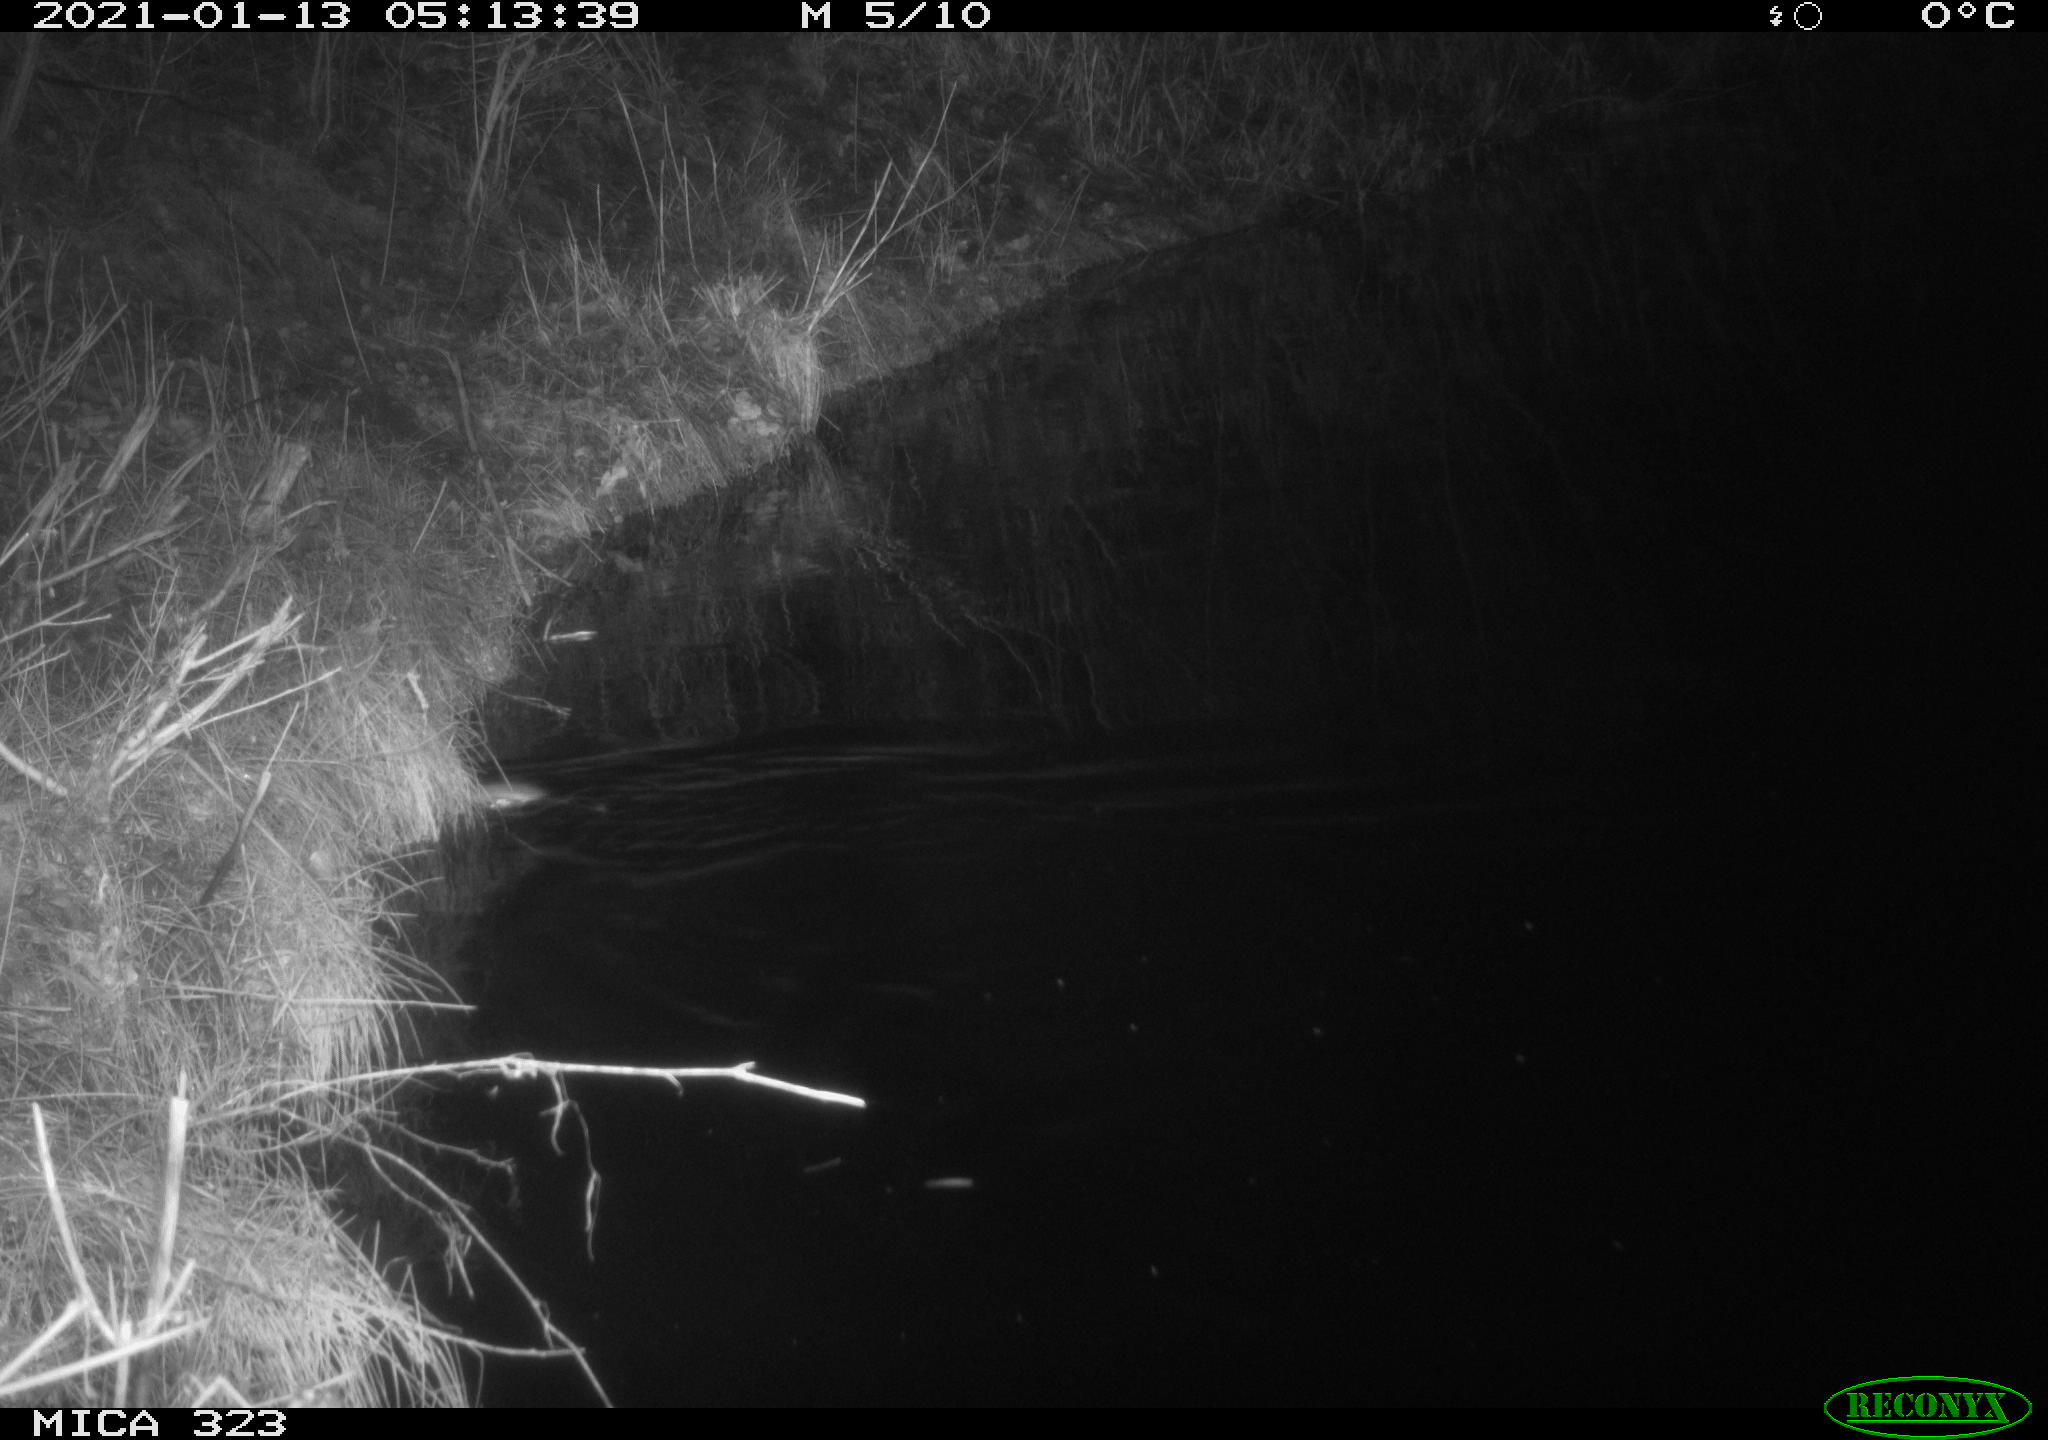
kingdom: Animalia
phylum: Chordata
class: Mammalia
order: Rodentia
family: Muridae
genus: Rattus
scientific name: Rattus norvegicus
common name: Brown rat
